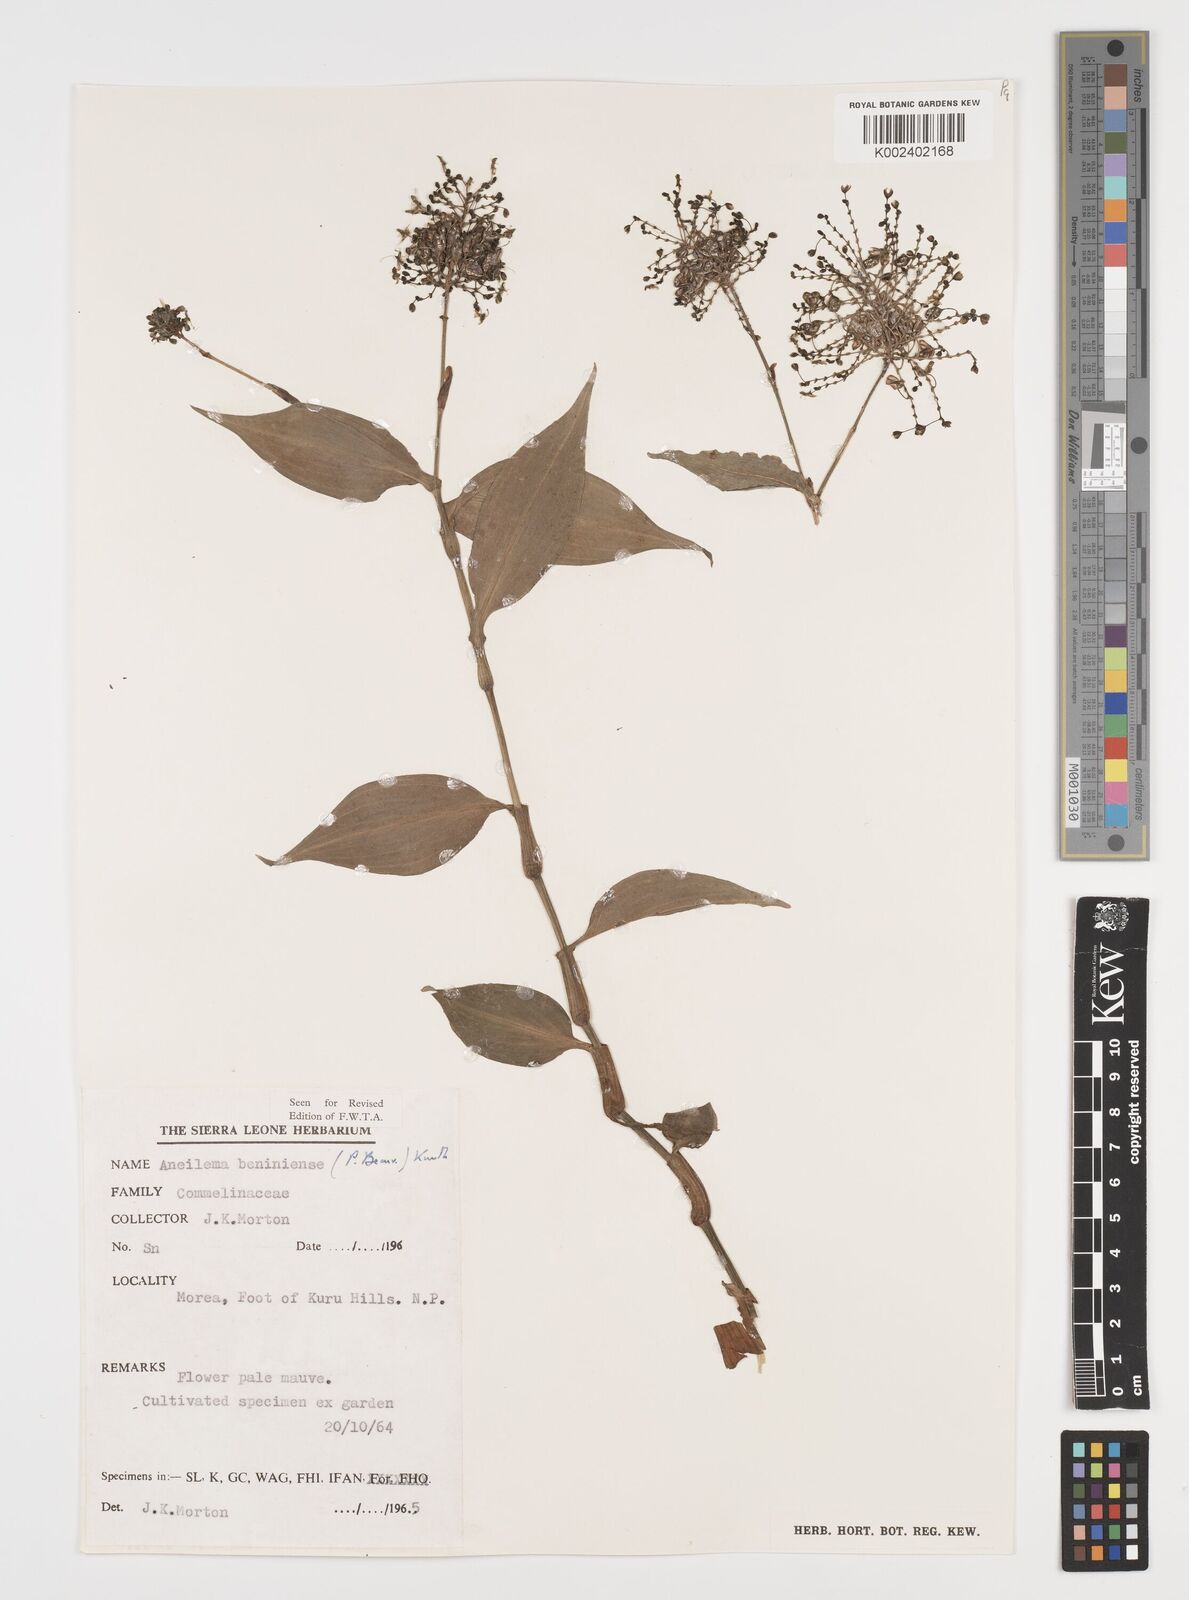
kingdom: Plantae
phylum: Tracheophyta
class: Liliopsida
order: Commelinales
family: Commelinaceae
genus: Aneilema
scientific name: Aneilema beniniense
